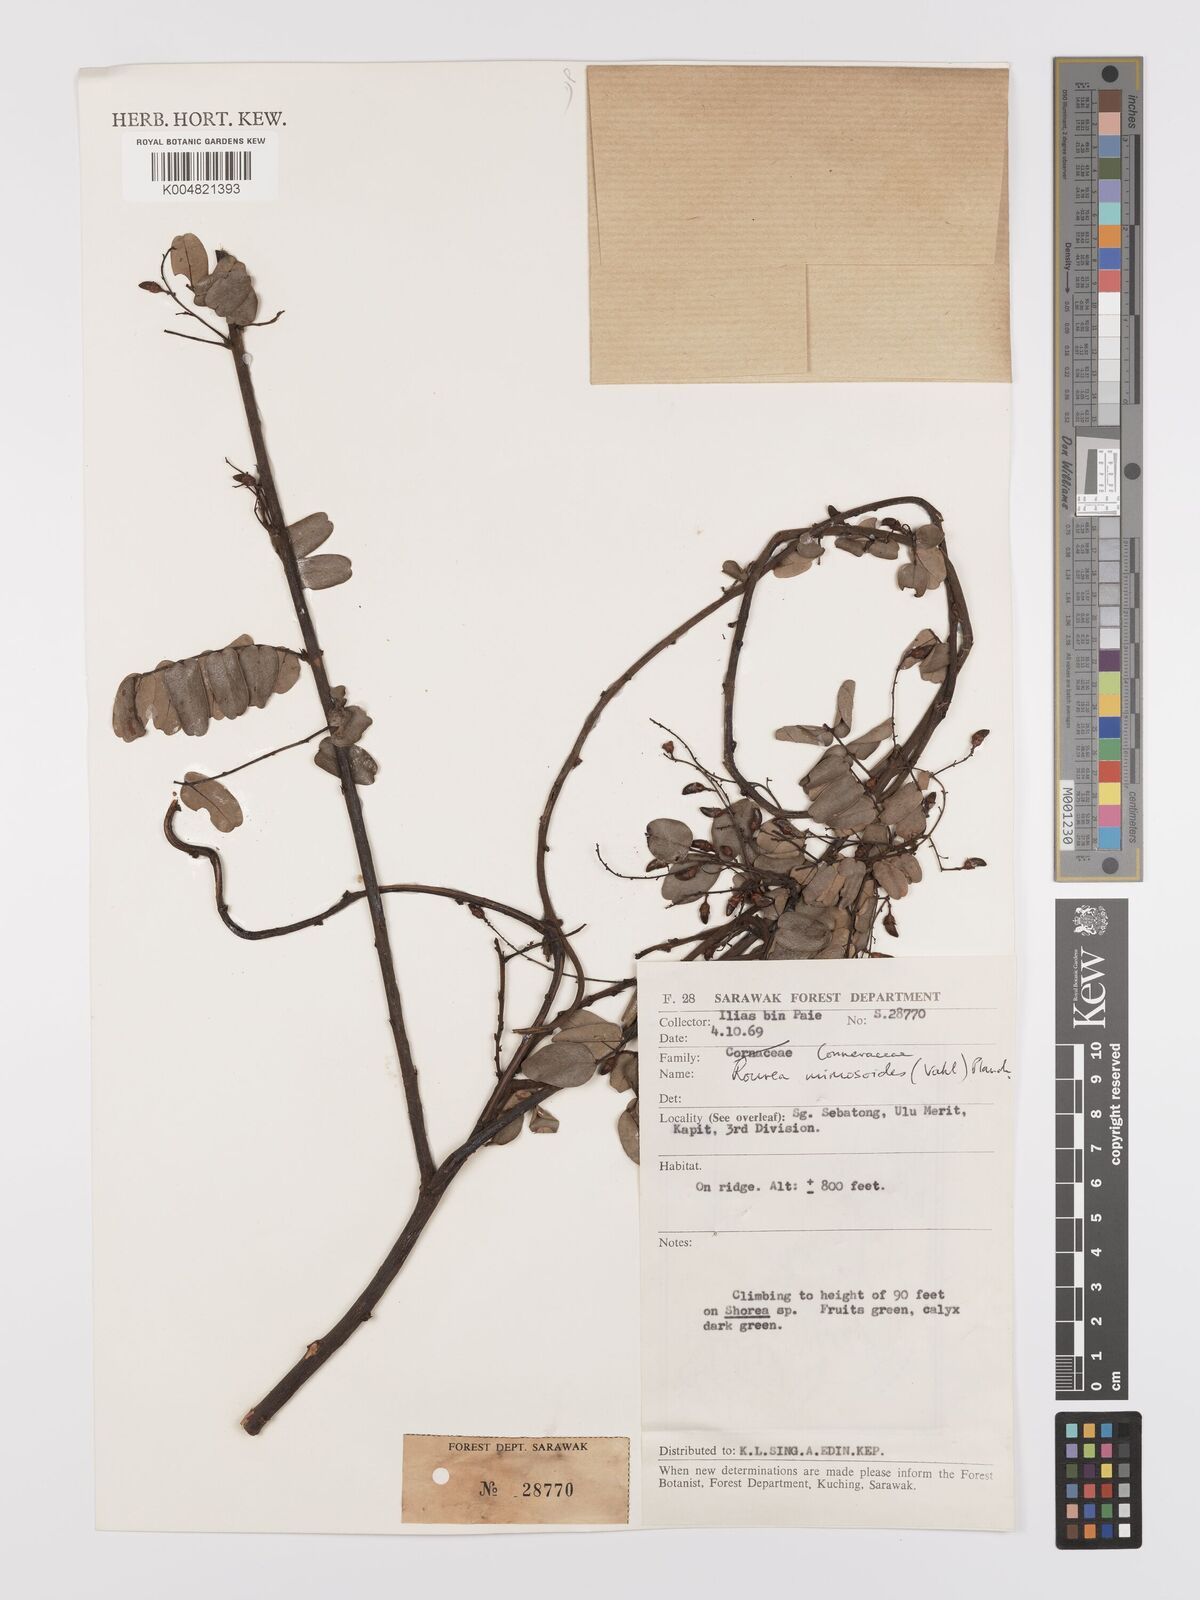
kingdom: Plantae
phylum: Tracheophyta
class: Magnoliopsida
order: Oxalidales
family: Connaraceae
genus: Rourea
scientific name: Rourea mimosoides
